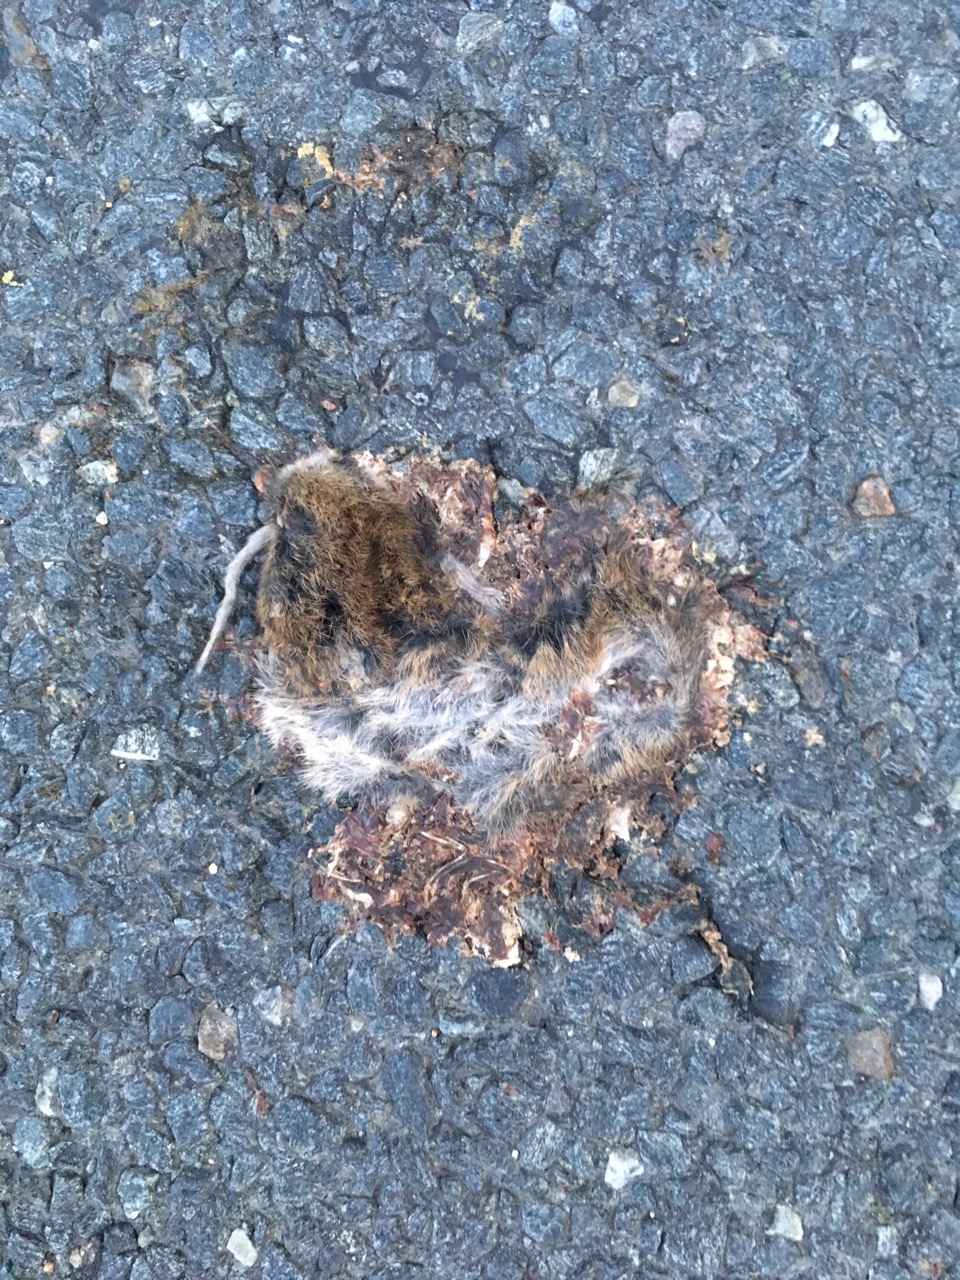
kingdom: Animalia
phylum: Chordata
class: Mammalia
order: Rodentia
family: Cricetidae
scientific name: Cricetidae
